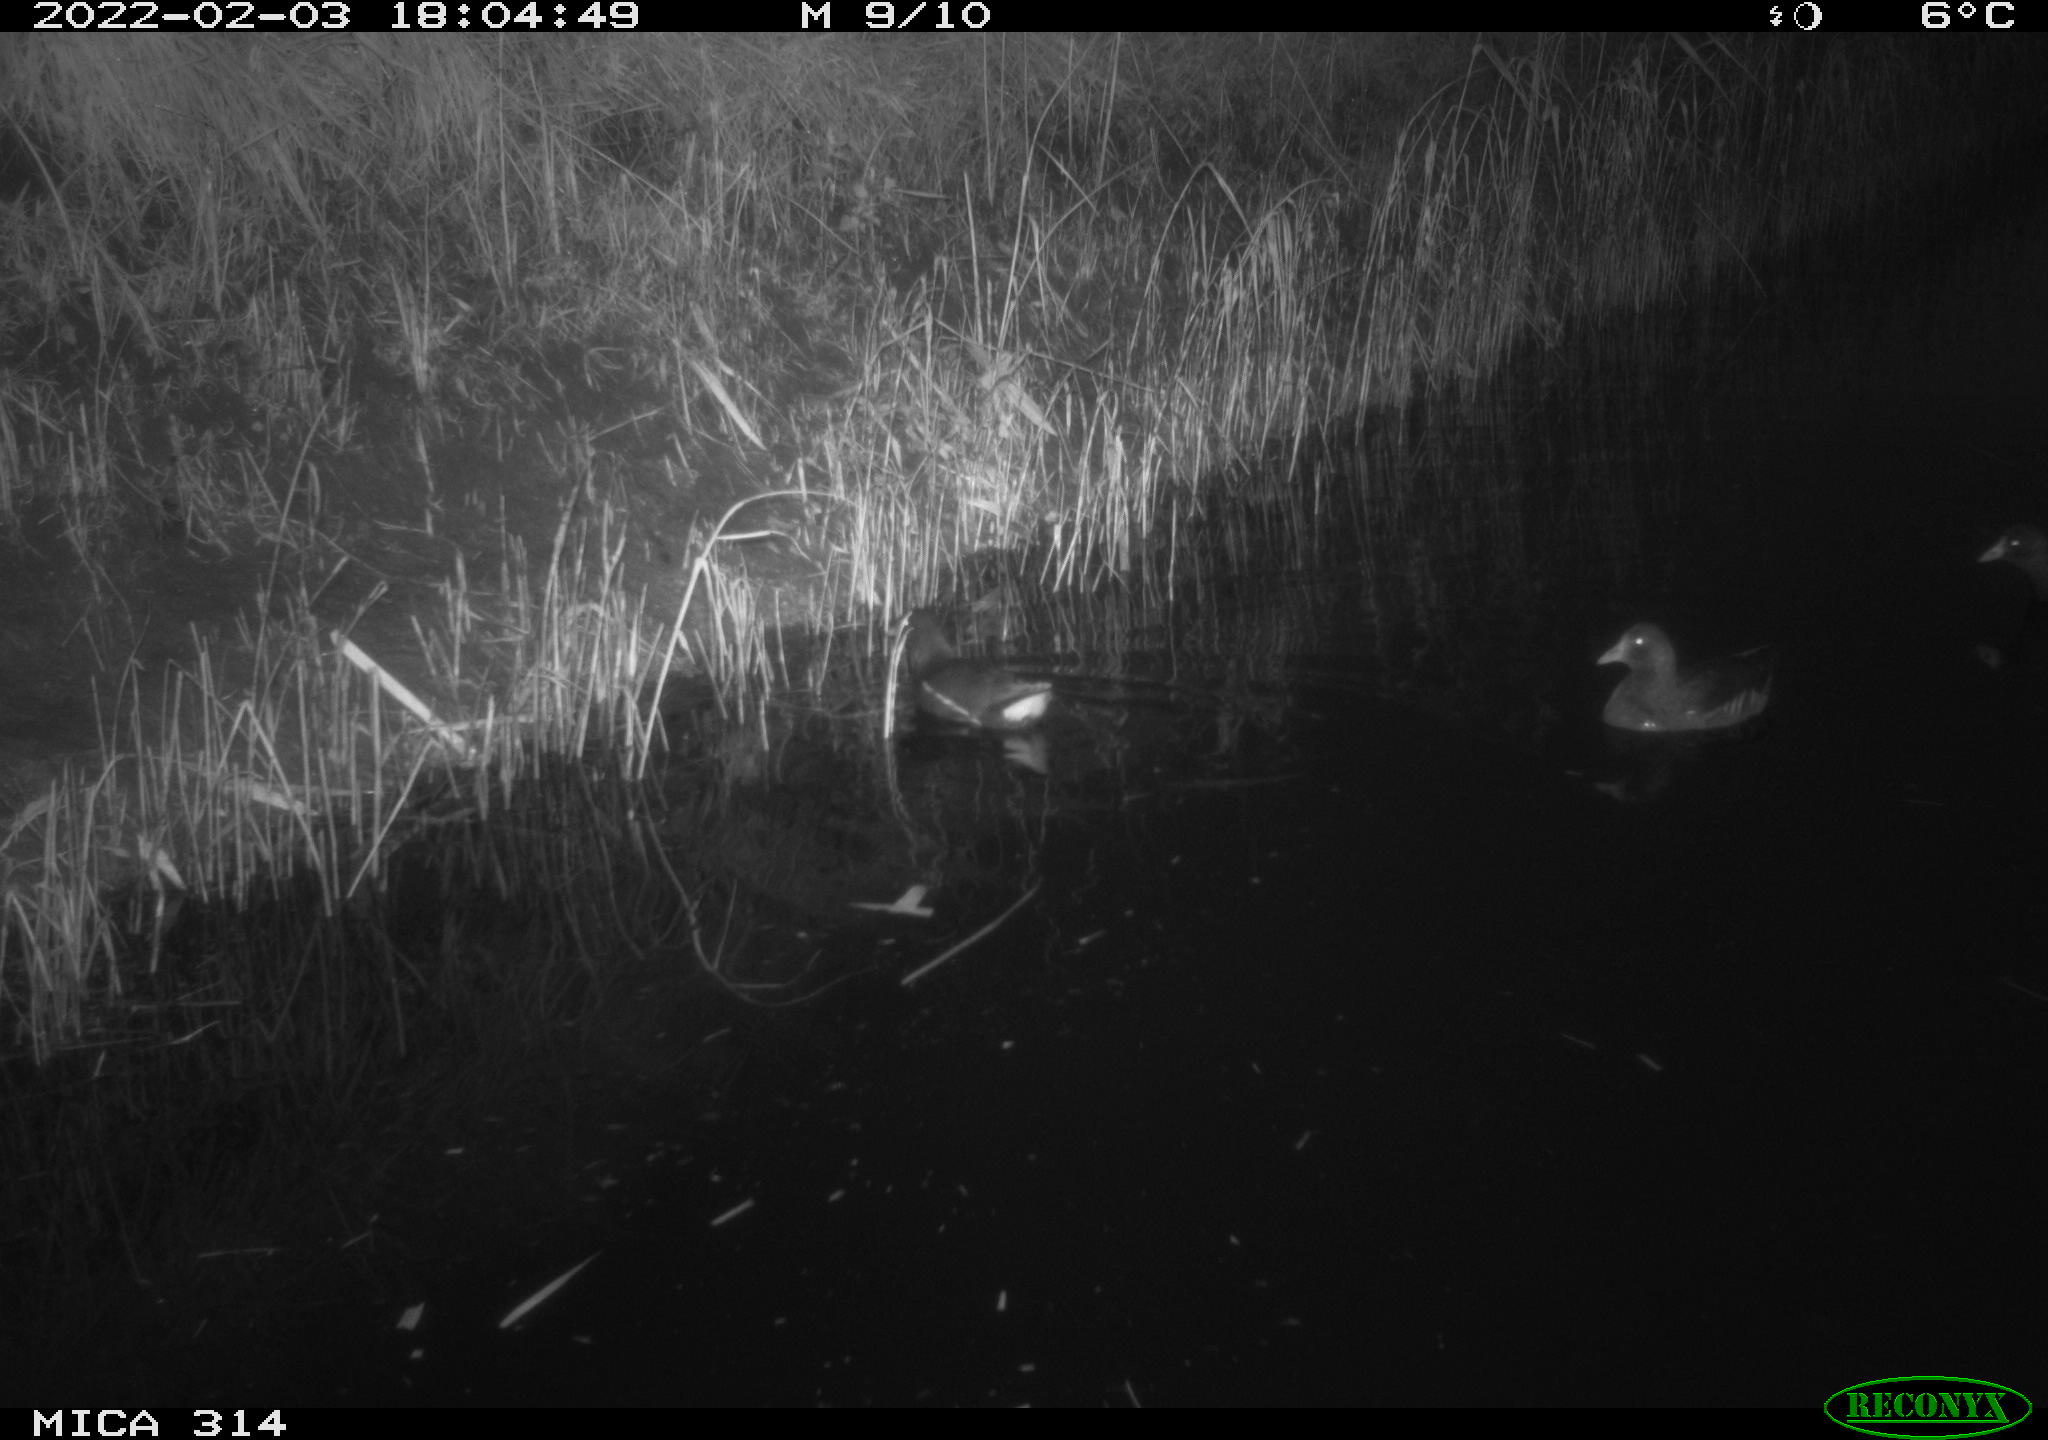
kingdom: Animalia
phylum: Chordata
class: Aves
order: Gruiformes
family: Rallidae
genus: Gallinula
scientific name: Gallinula chloropus
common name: Common moorhen
